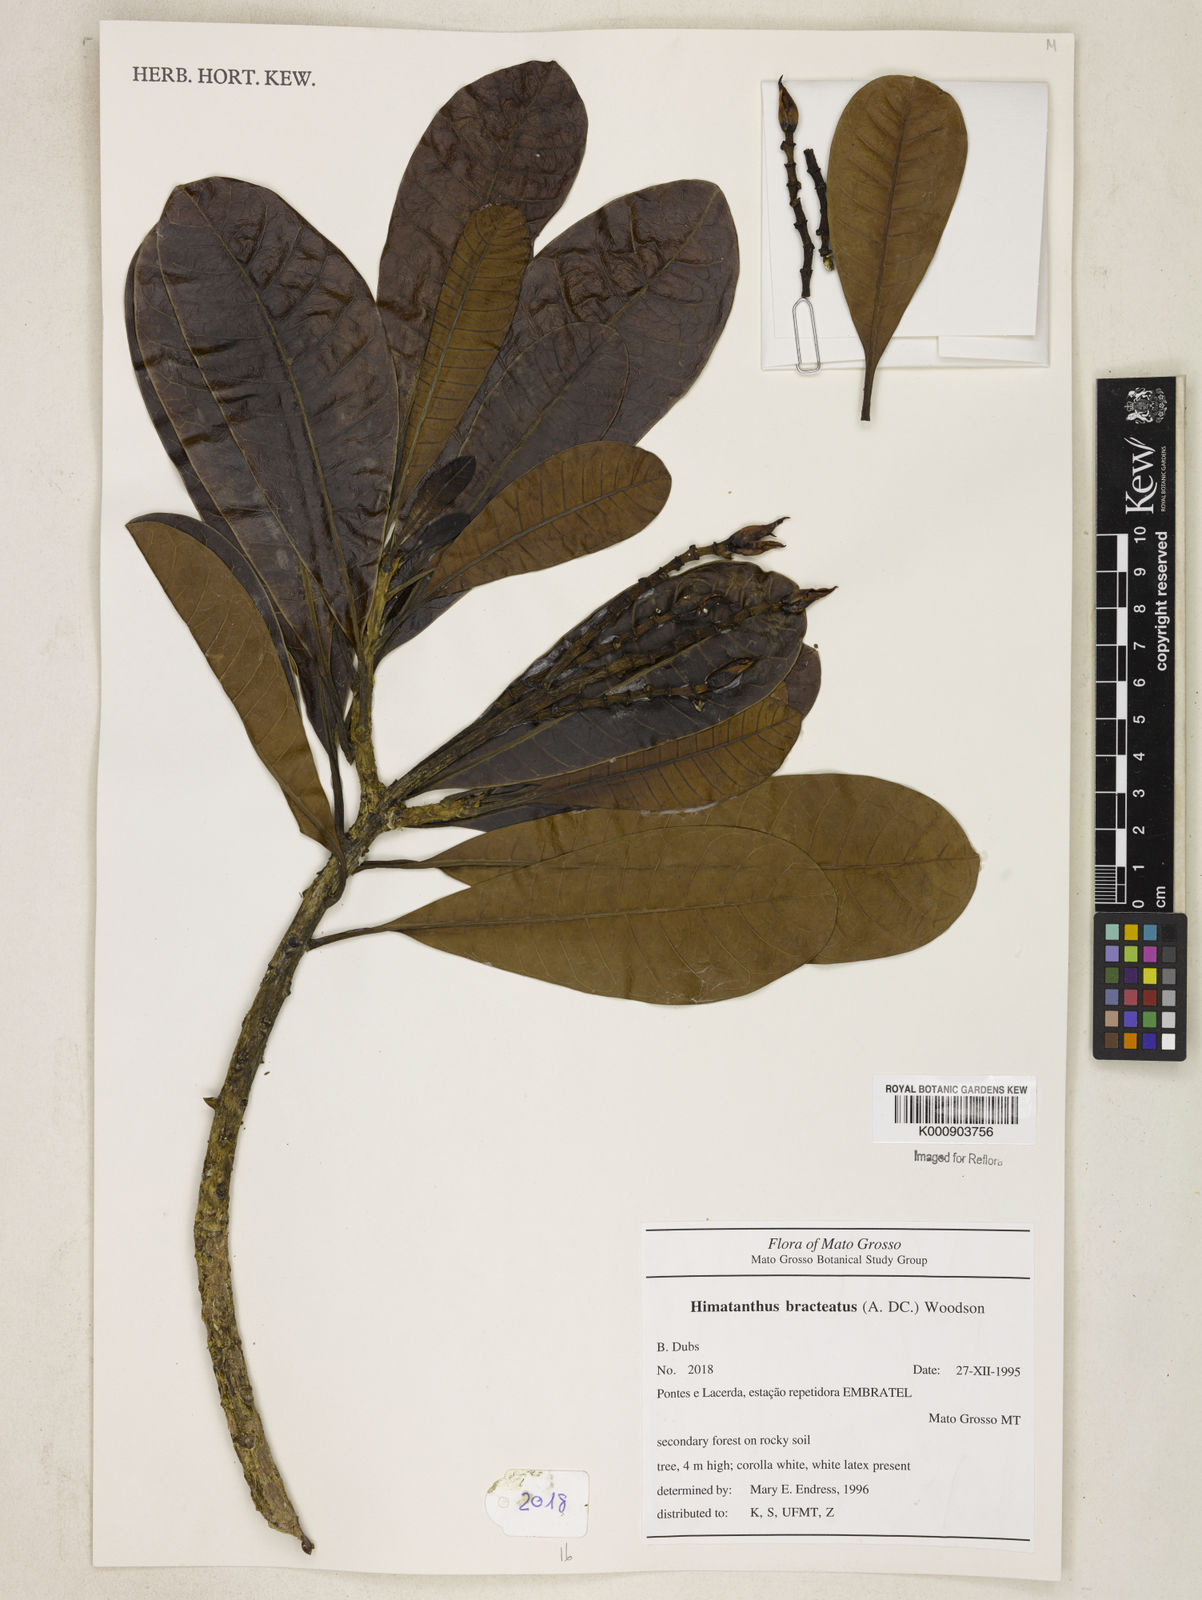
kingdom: Plantae
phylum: Tracheophyta
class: Magnoliopsida
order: Gentianales
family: Apocynaceae
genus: Himatanthus
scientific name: Himatanthus bracteatus
